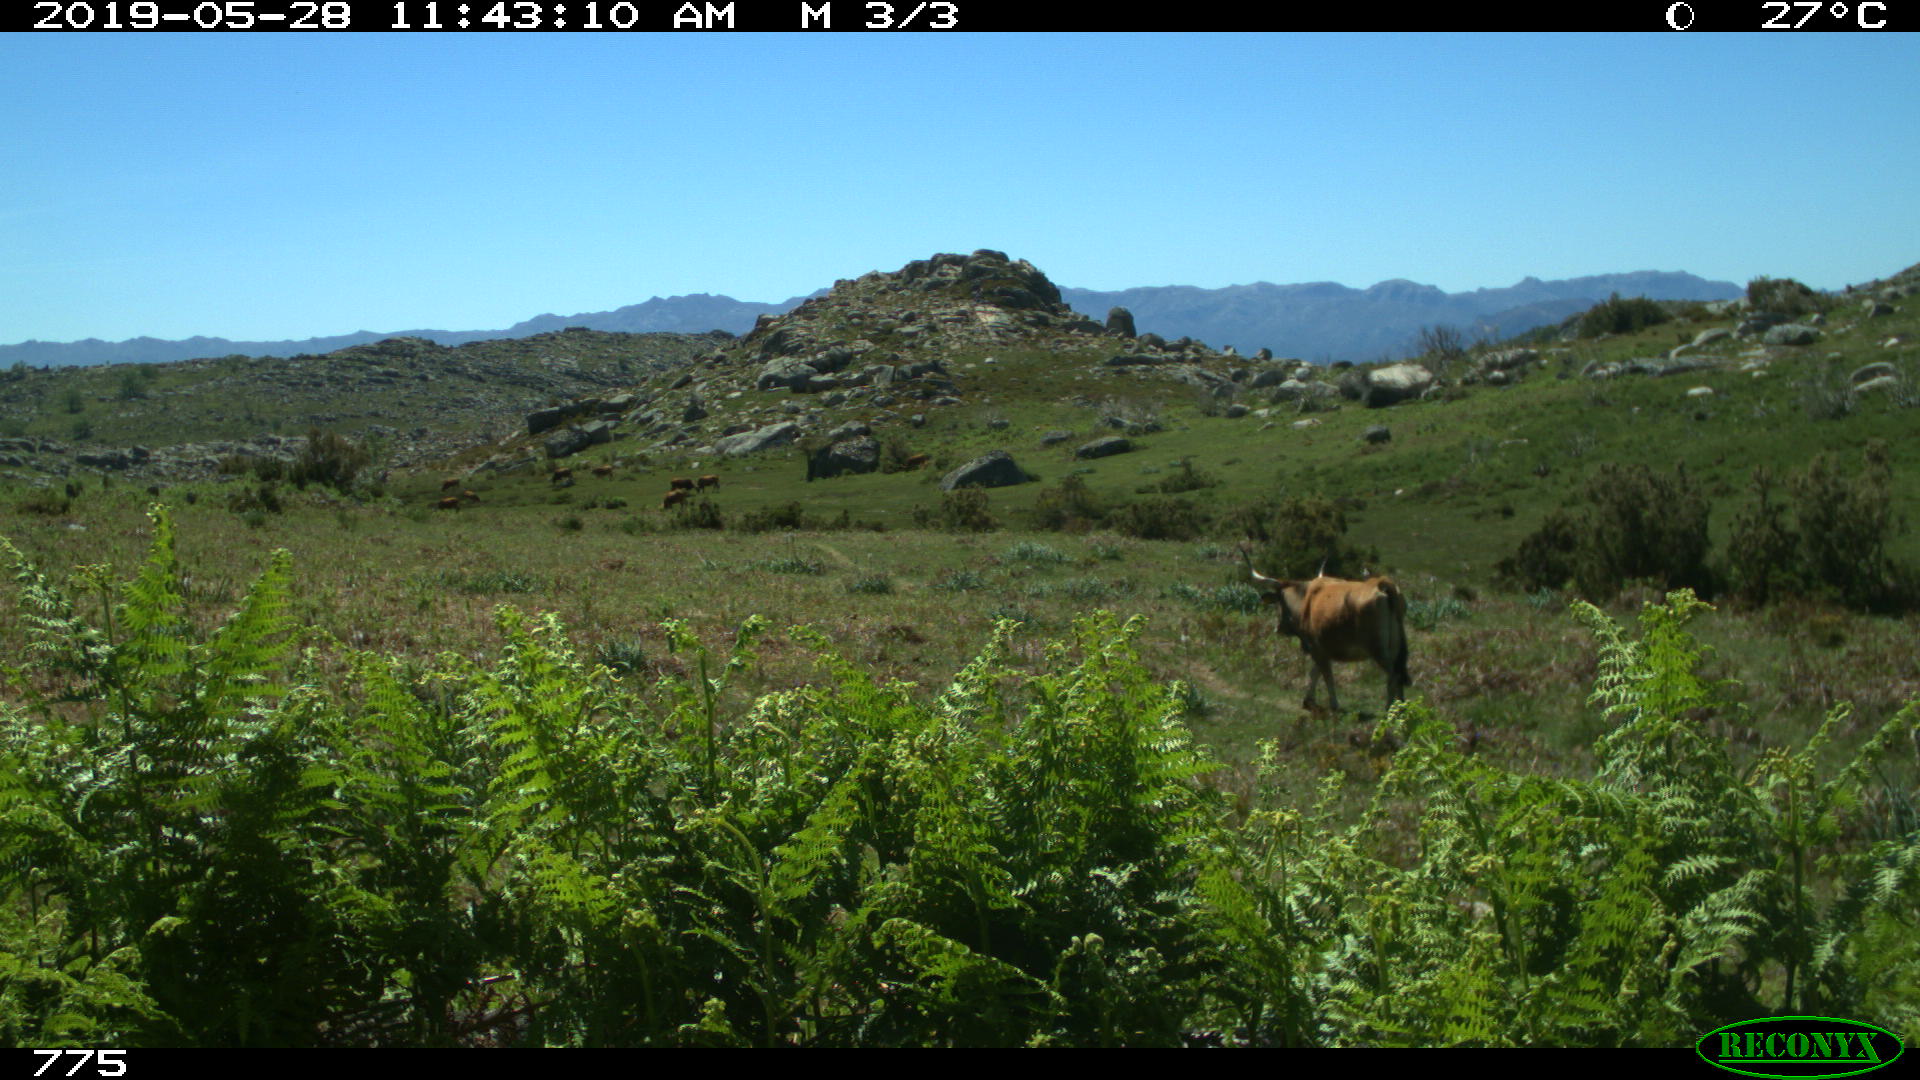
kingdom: Animalia
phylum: Chordata
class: Mammalia
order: Artiodactyla
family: Bovidae
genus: Bos
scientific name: Bos taurus
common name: Domesticated cattle
